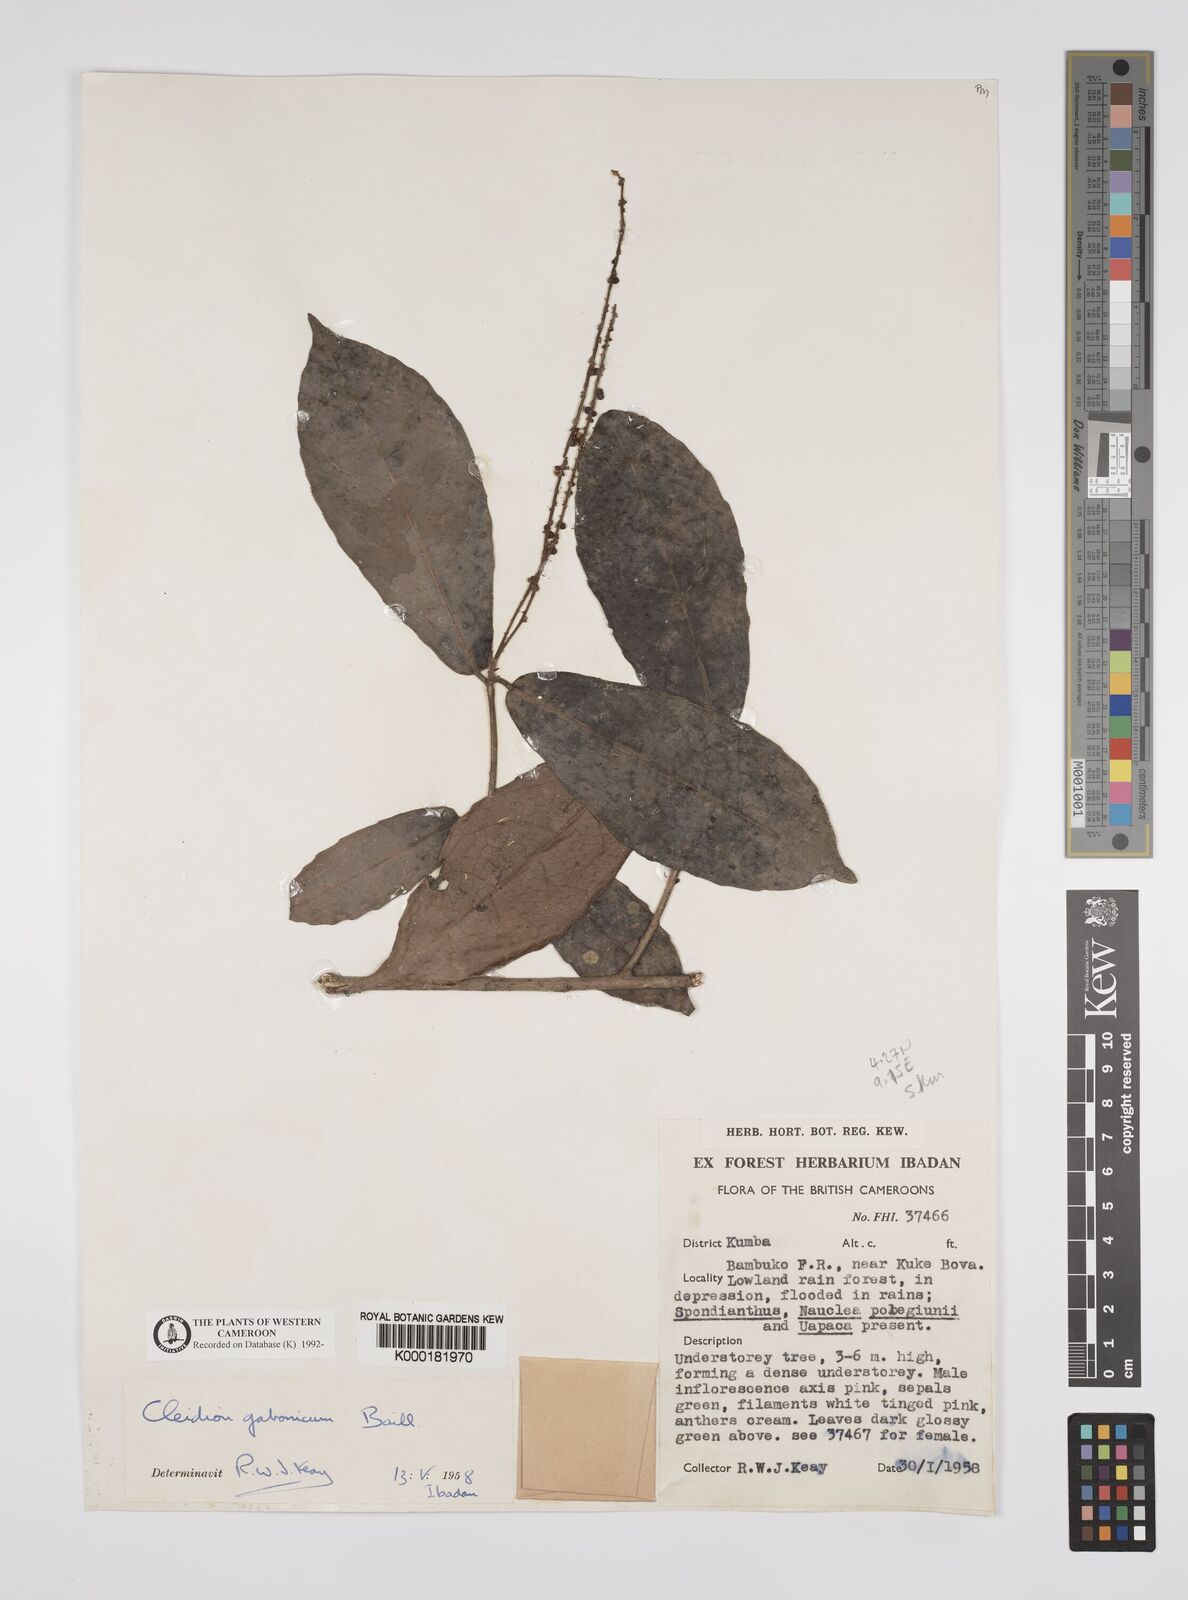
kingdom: Plantae
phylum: Tracheophyta
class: Magnoliopsida
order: Malpighiales
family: Euphorbiaceae
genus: Cleidion
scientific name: Cleidion gabonicum
